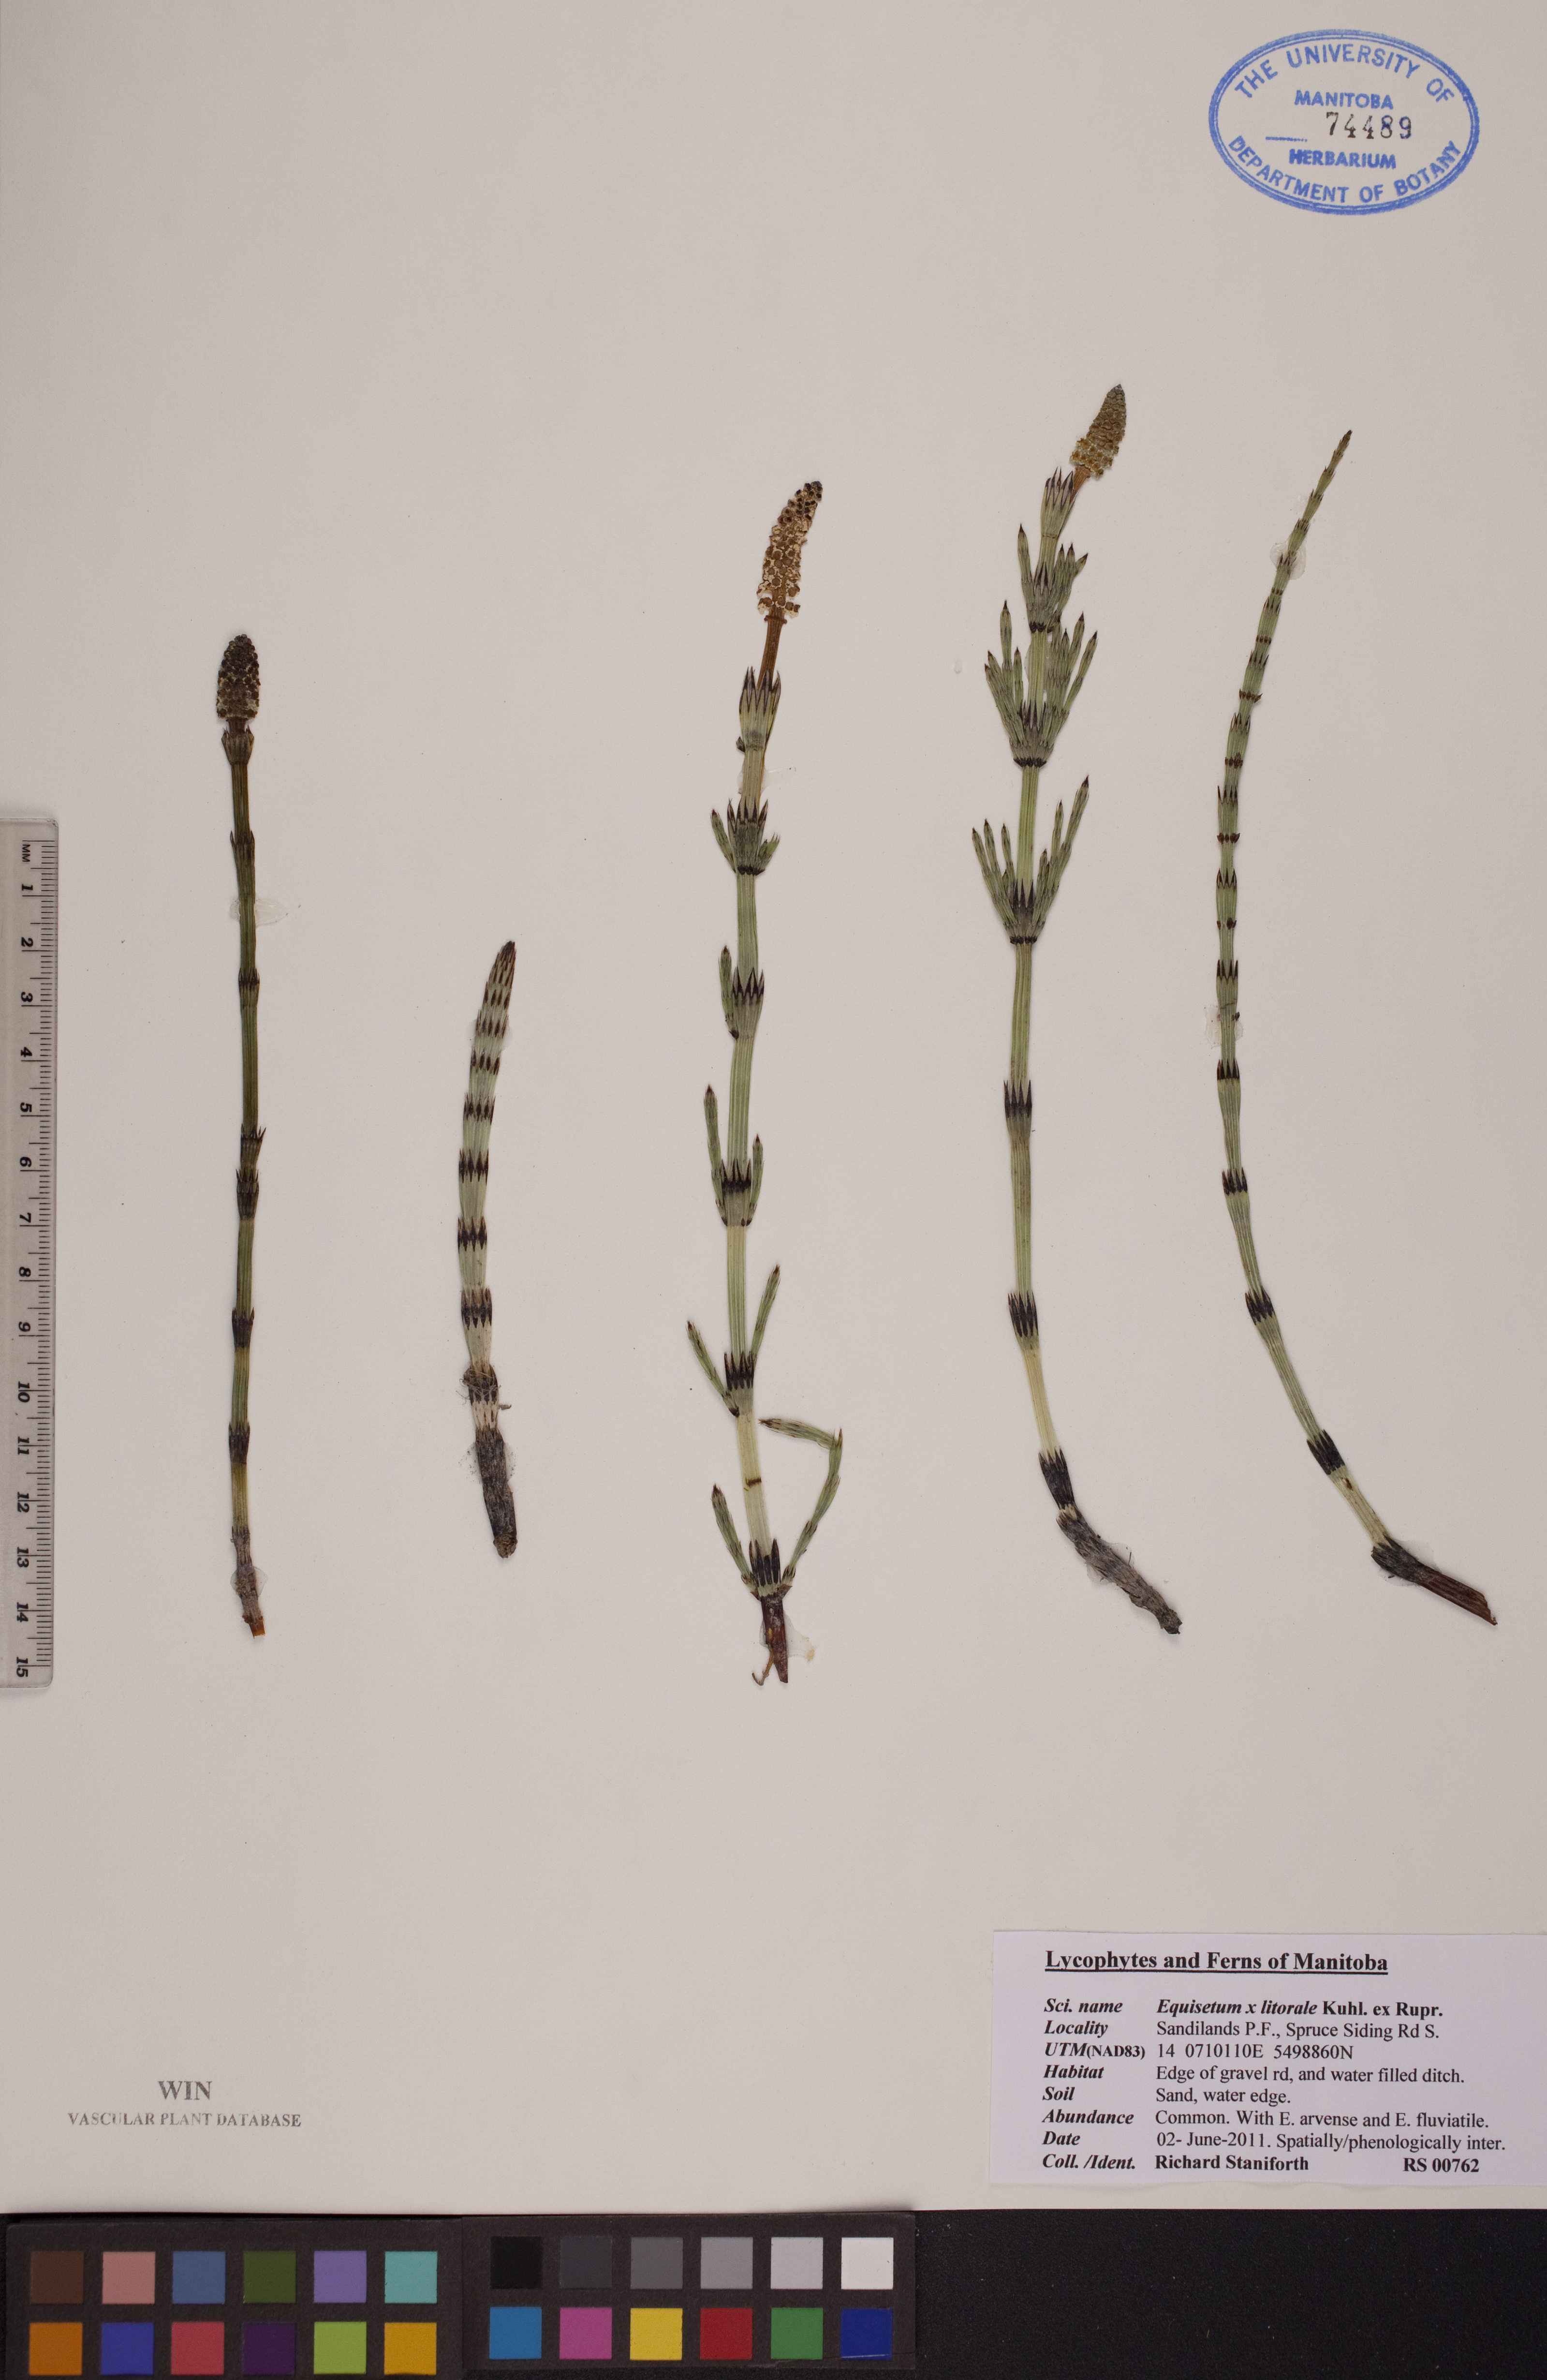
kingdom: Plantae
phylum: Tracheophyta
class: Polypodiopsida
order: Equisetales
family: Equisetaceae
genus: Equisetum
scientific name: Equisetum litorale
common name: Littoral horsetail
